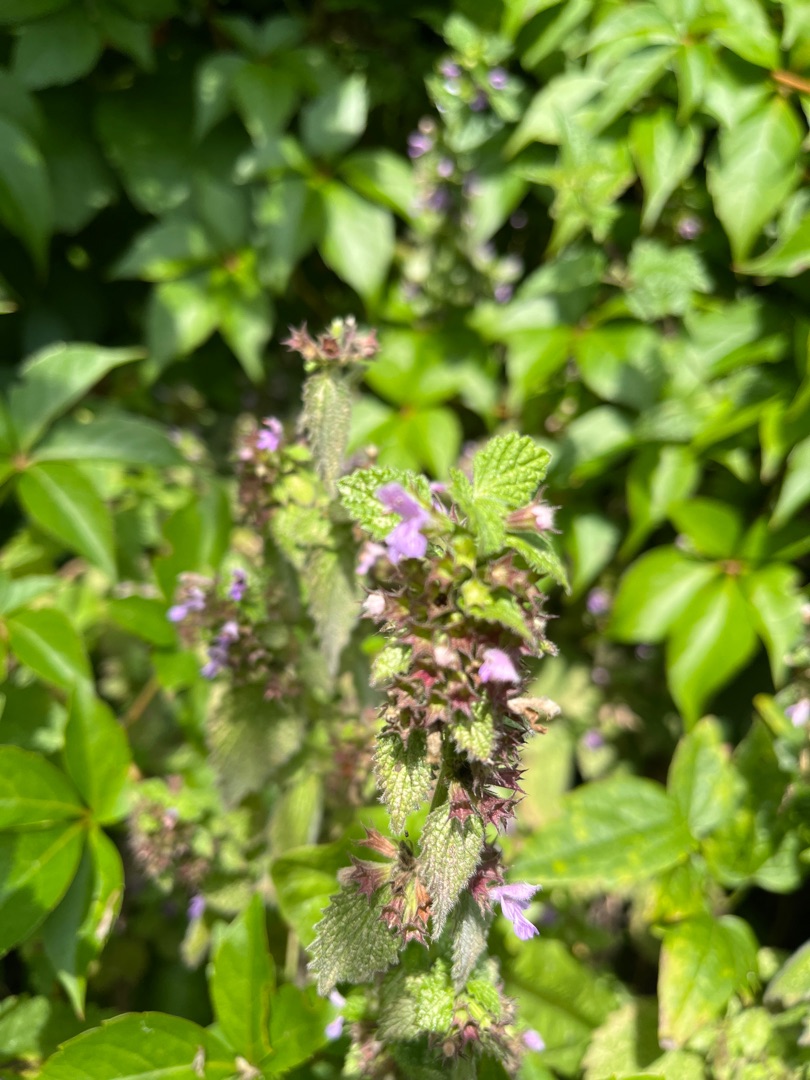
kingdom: Plantae
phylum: Tracheophyta
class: Magnoliopsida
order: Lamiales
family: Lamiaceae
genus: Ballota
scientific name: Ballota nigra
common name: Tandbæger
